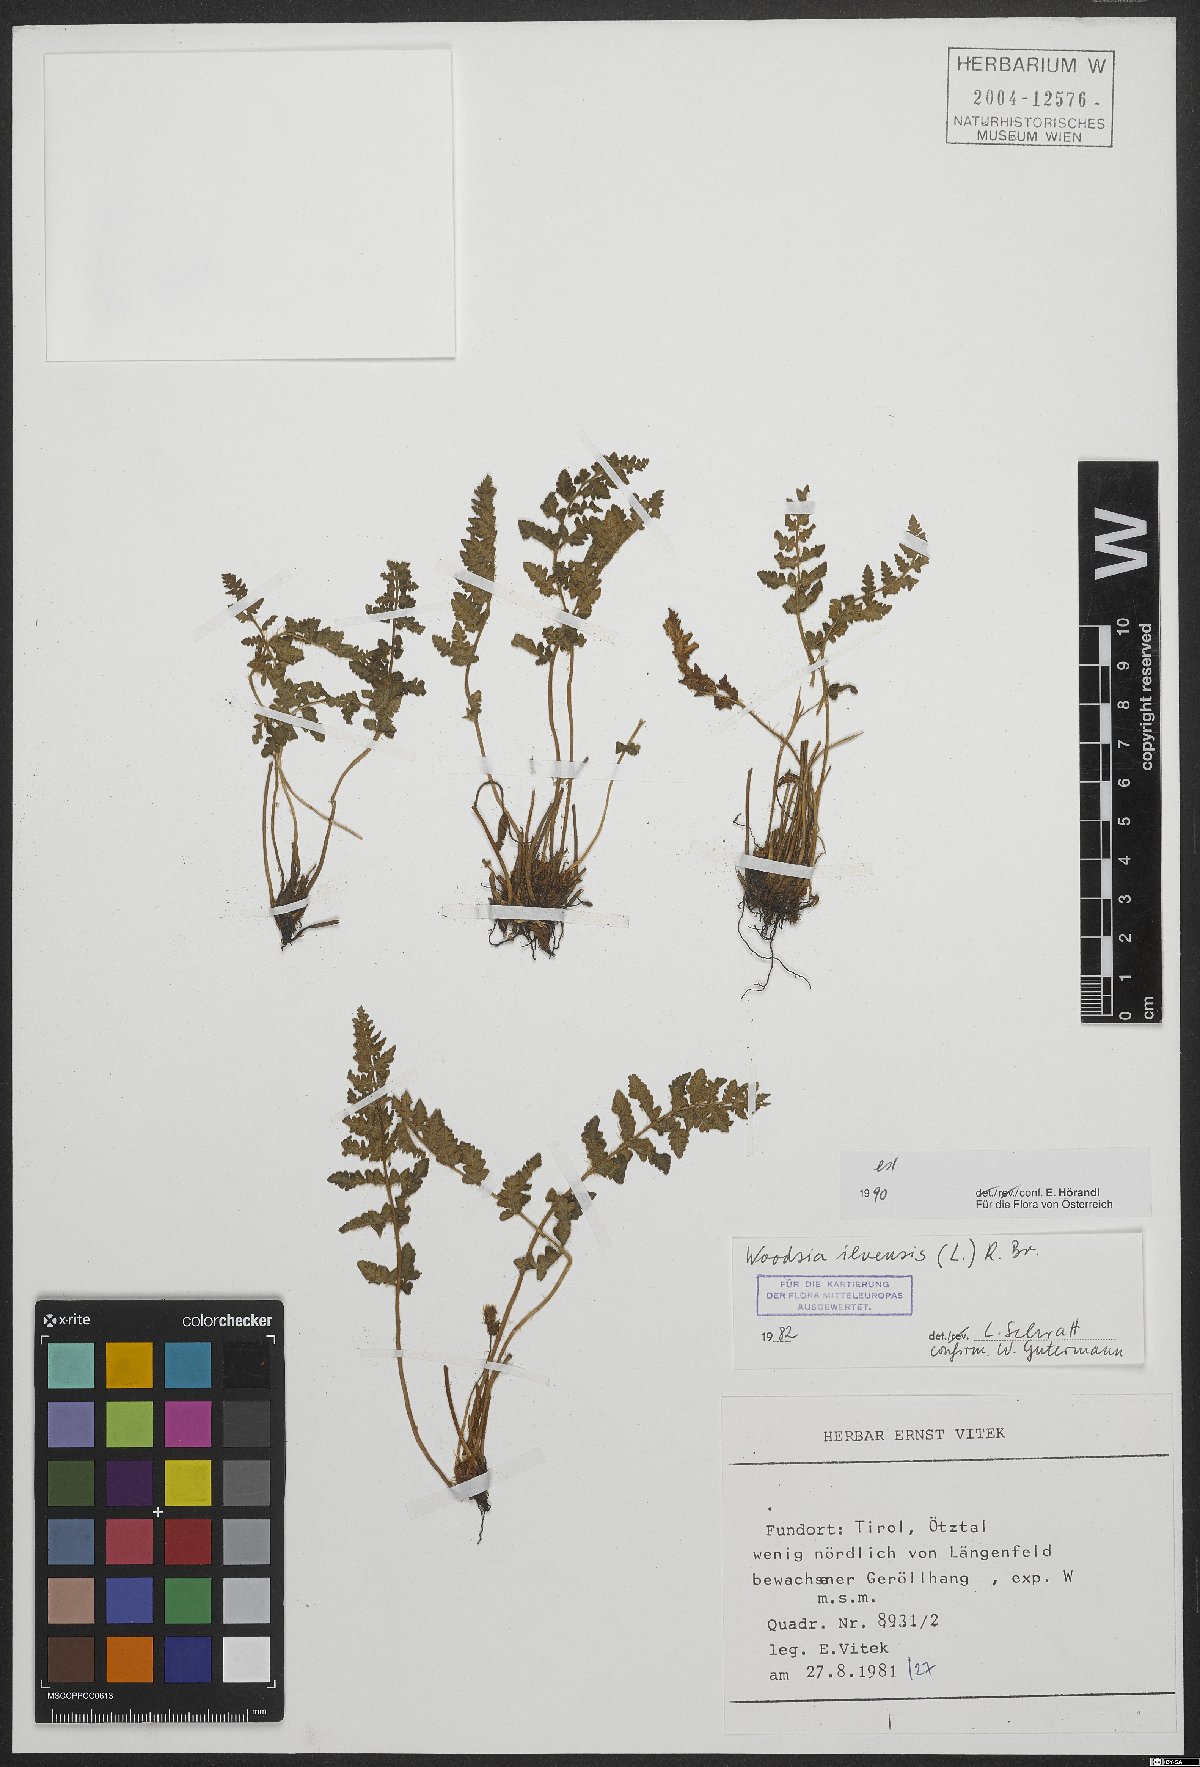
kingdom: Plantae
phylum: Tracheophyta
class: Polypodiopsida
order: Polypodiales
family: Woodsiaceae
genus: Woodsia
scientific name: Woodsia ilvensis
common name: Fragrant woodsia
